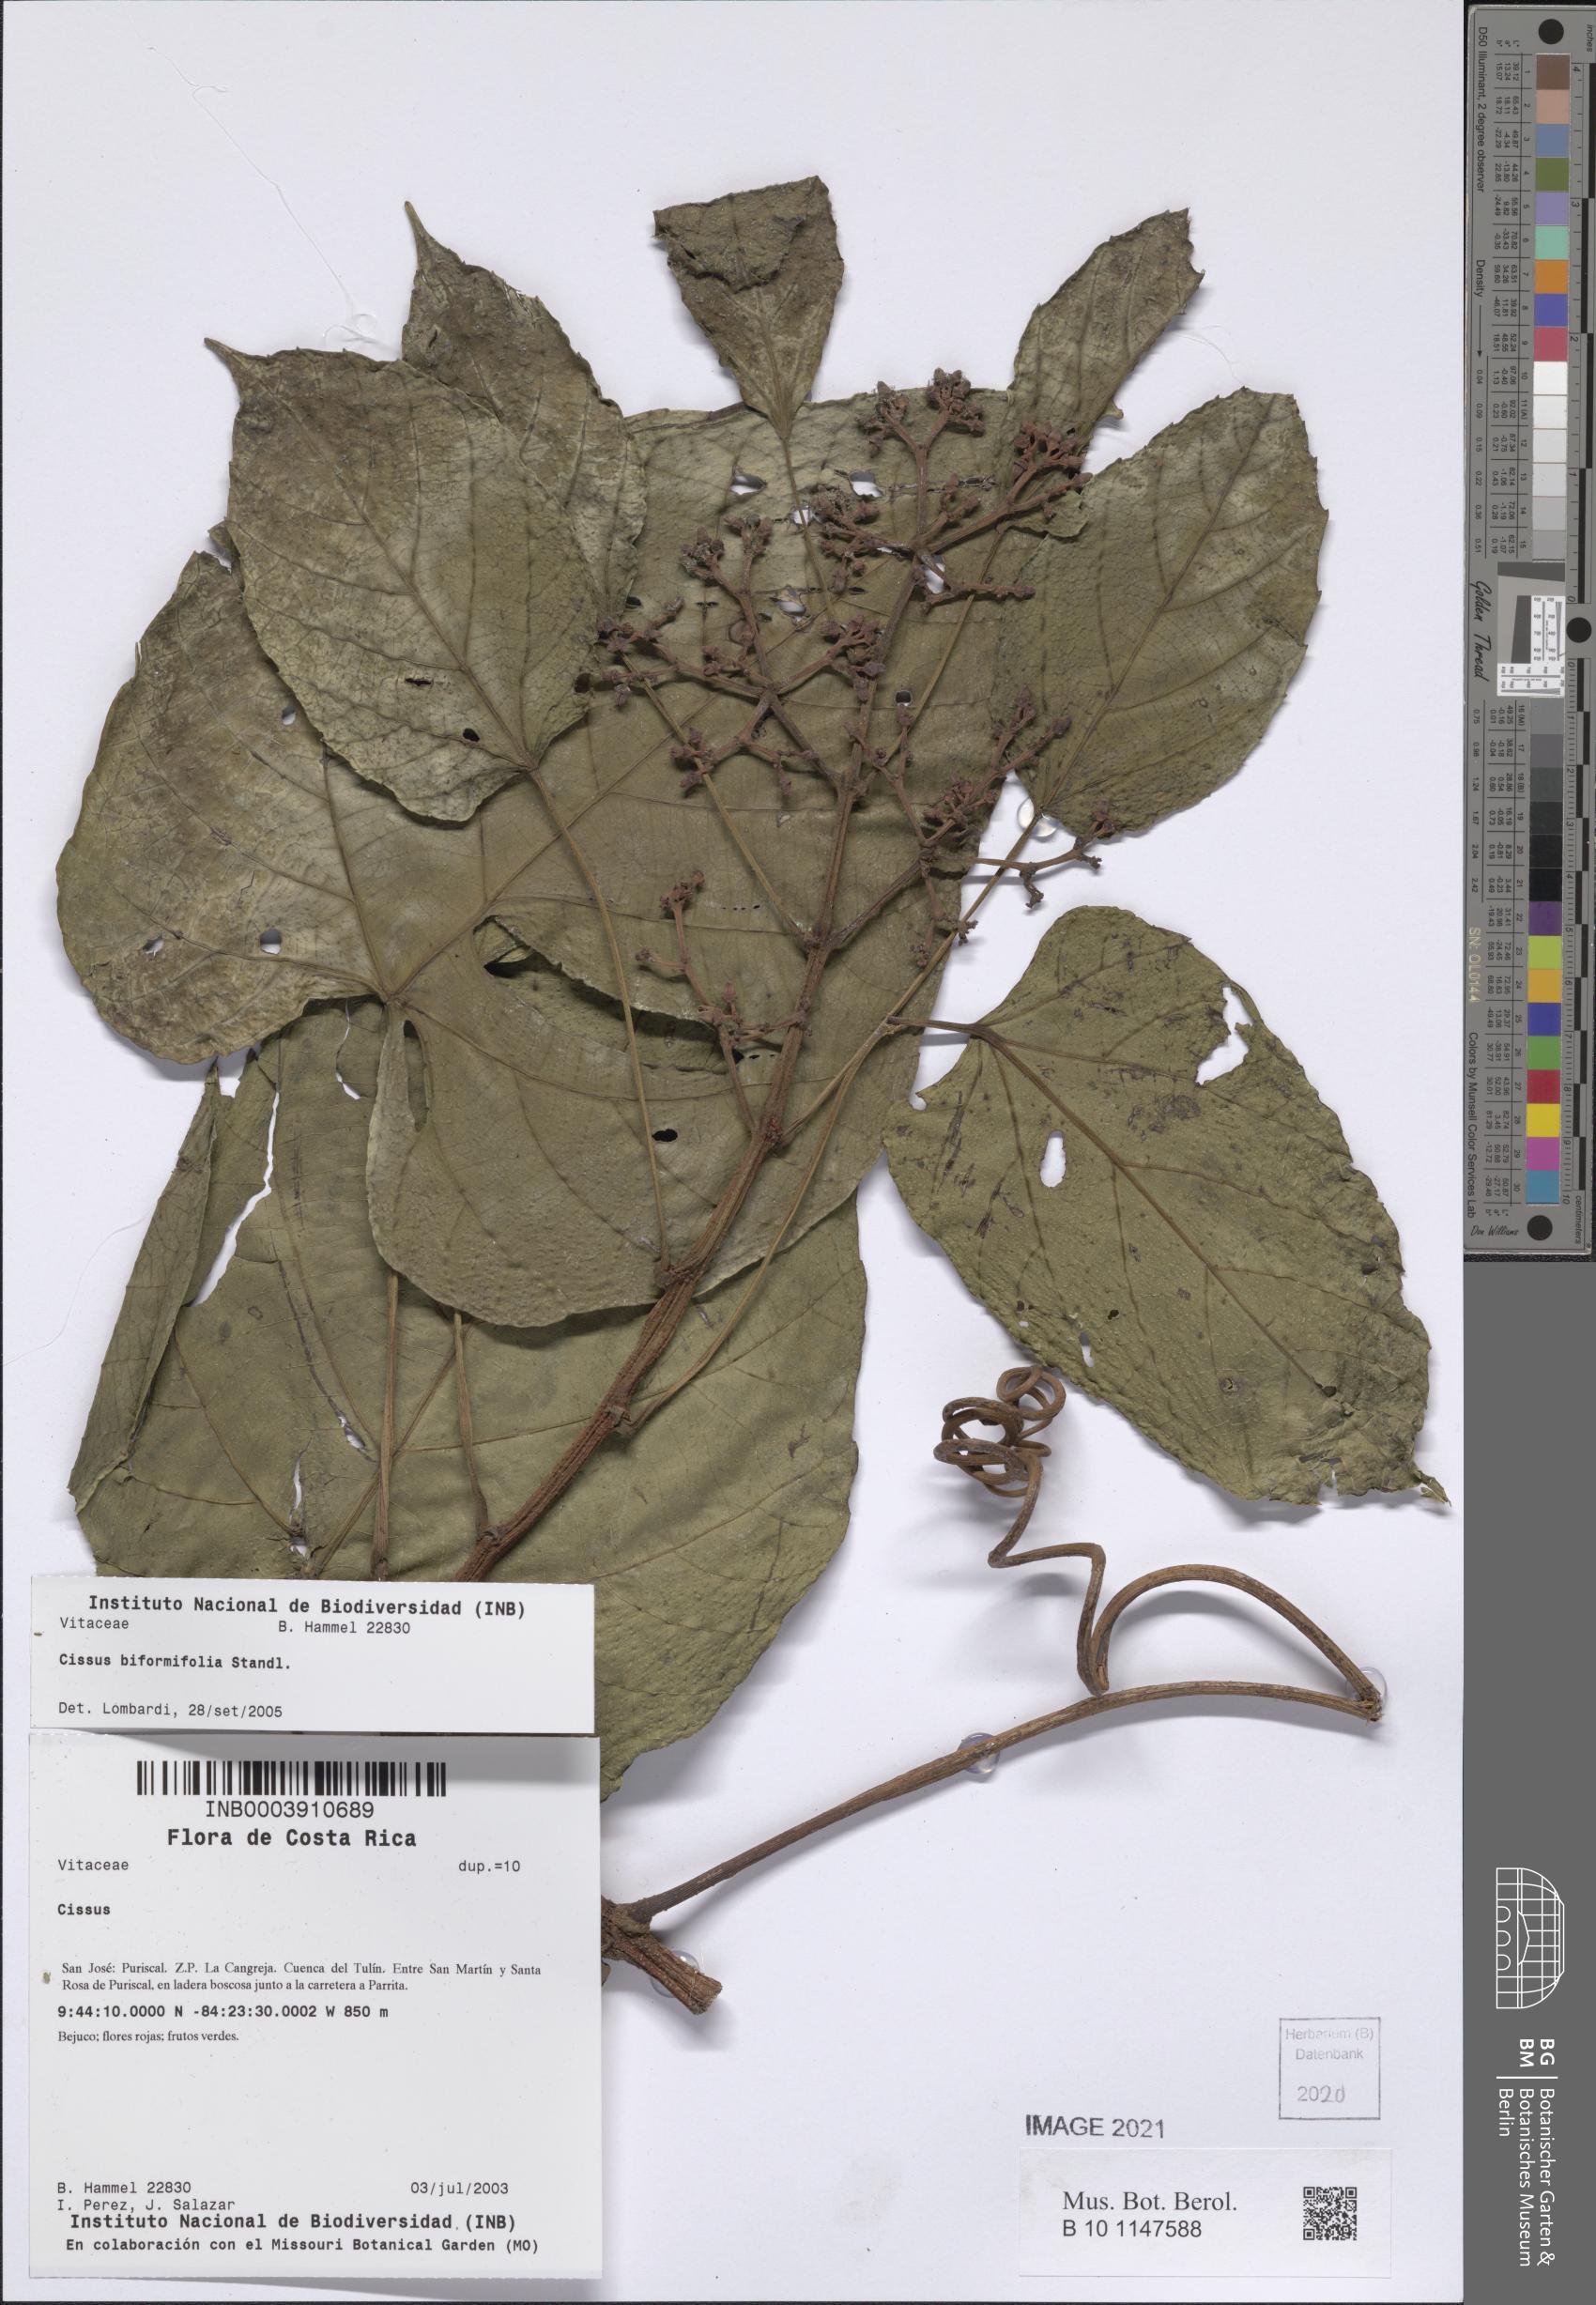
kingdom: Plantae
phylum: Tracheophyta
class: Magnoliopsida
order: Vitales
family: Vitaceae
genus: Cissus
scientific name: Cissus biformifolia
